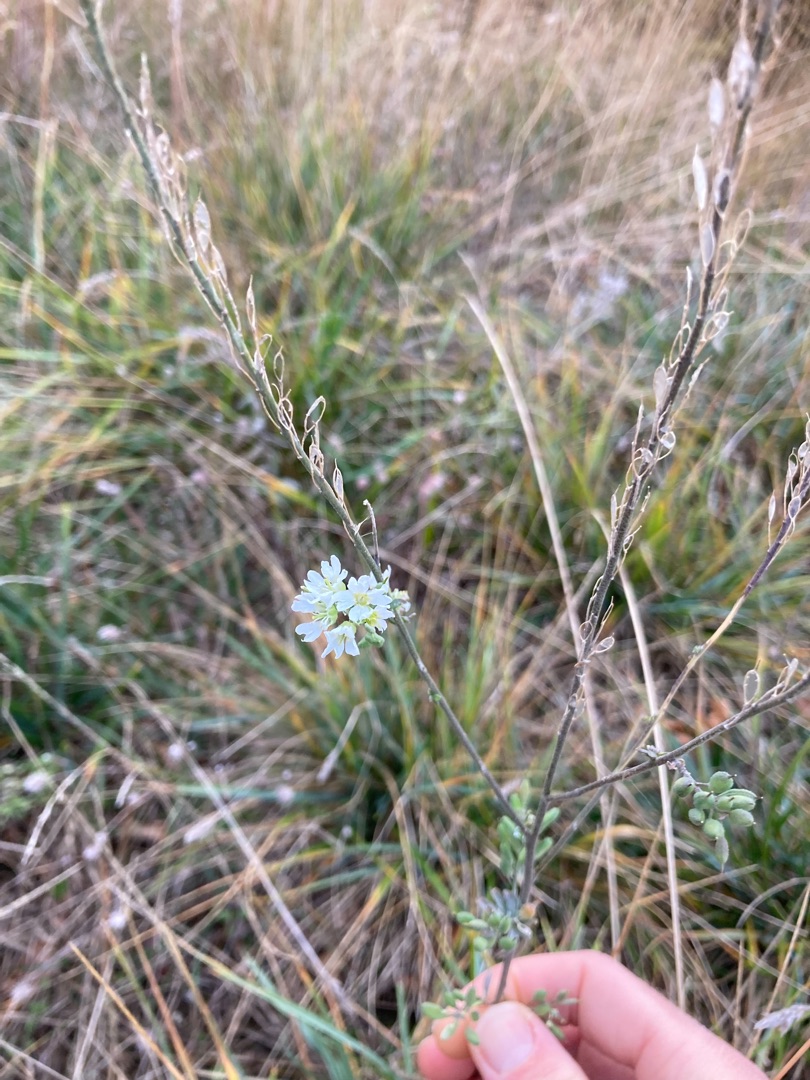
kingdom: Plantae
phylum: Tracheophyta
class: Magnoliopsida
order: Brassicales
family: Brassicaceae
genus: Berteroa
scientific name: Berteroa incana
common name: Kløvplade
